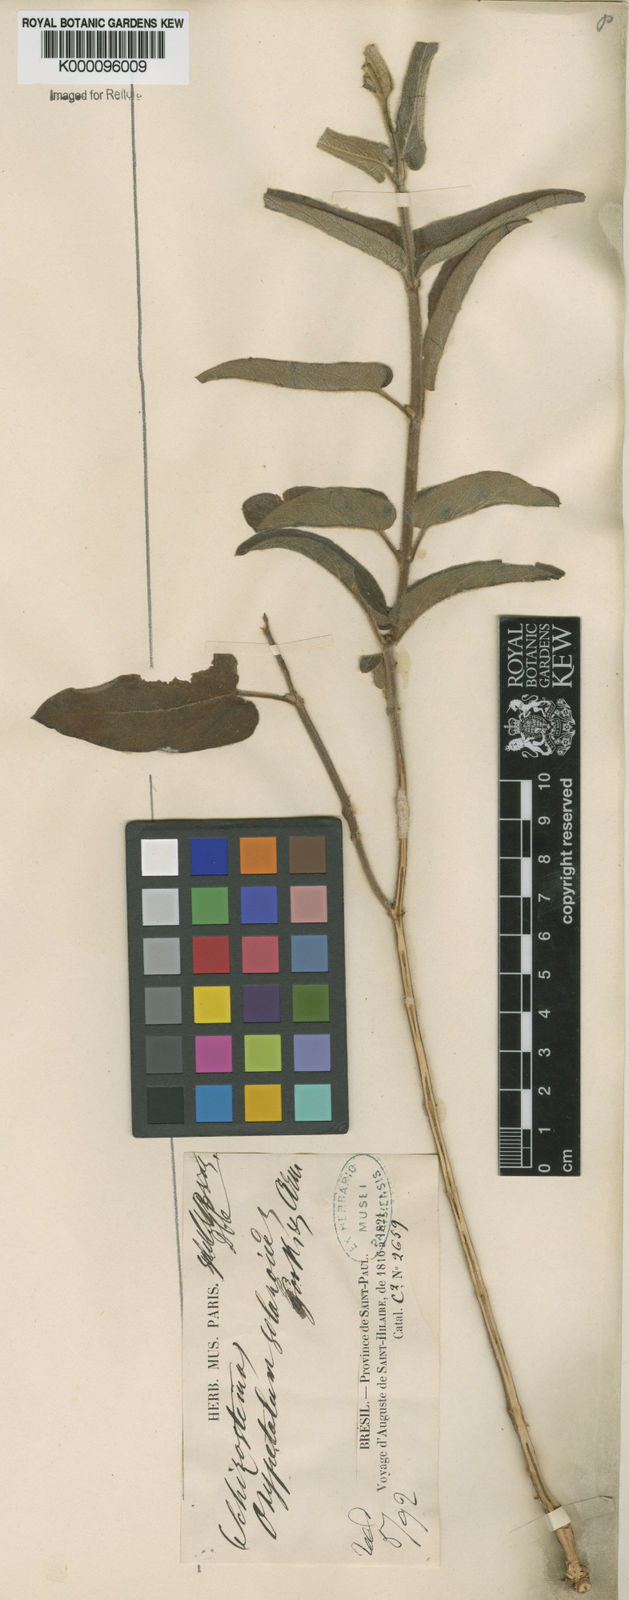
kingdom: Plantae
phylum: Tracheophyta
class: Magnoliopsida
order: Gentianales
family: Apocynaceae
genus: Oxypetalum
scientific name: Oxypetalum solanoides
